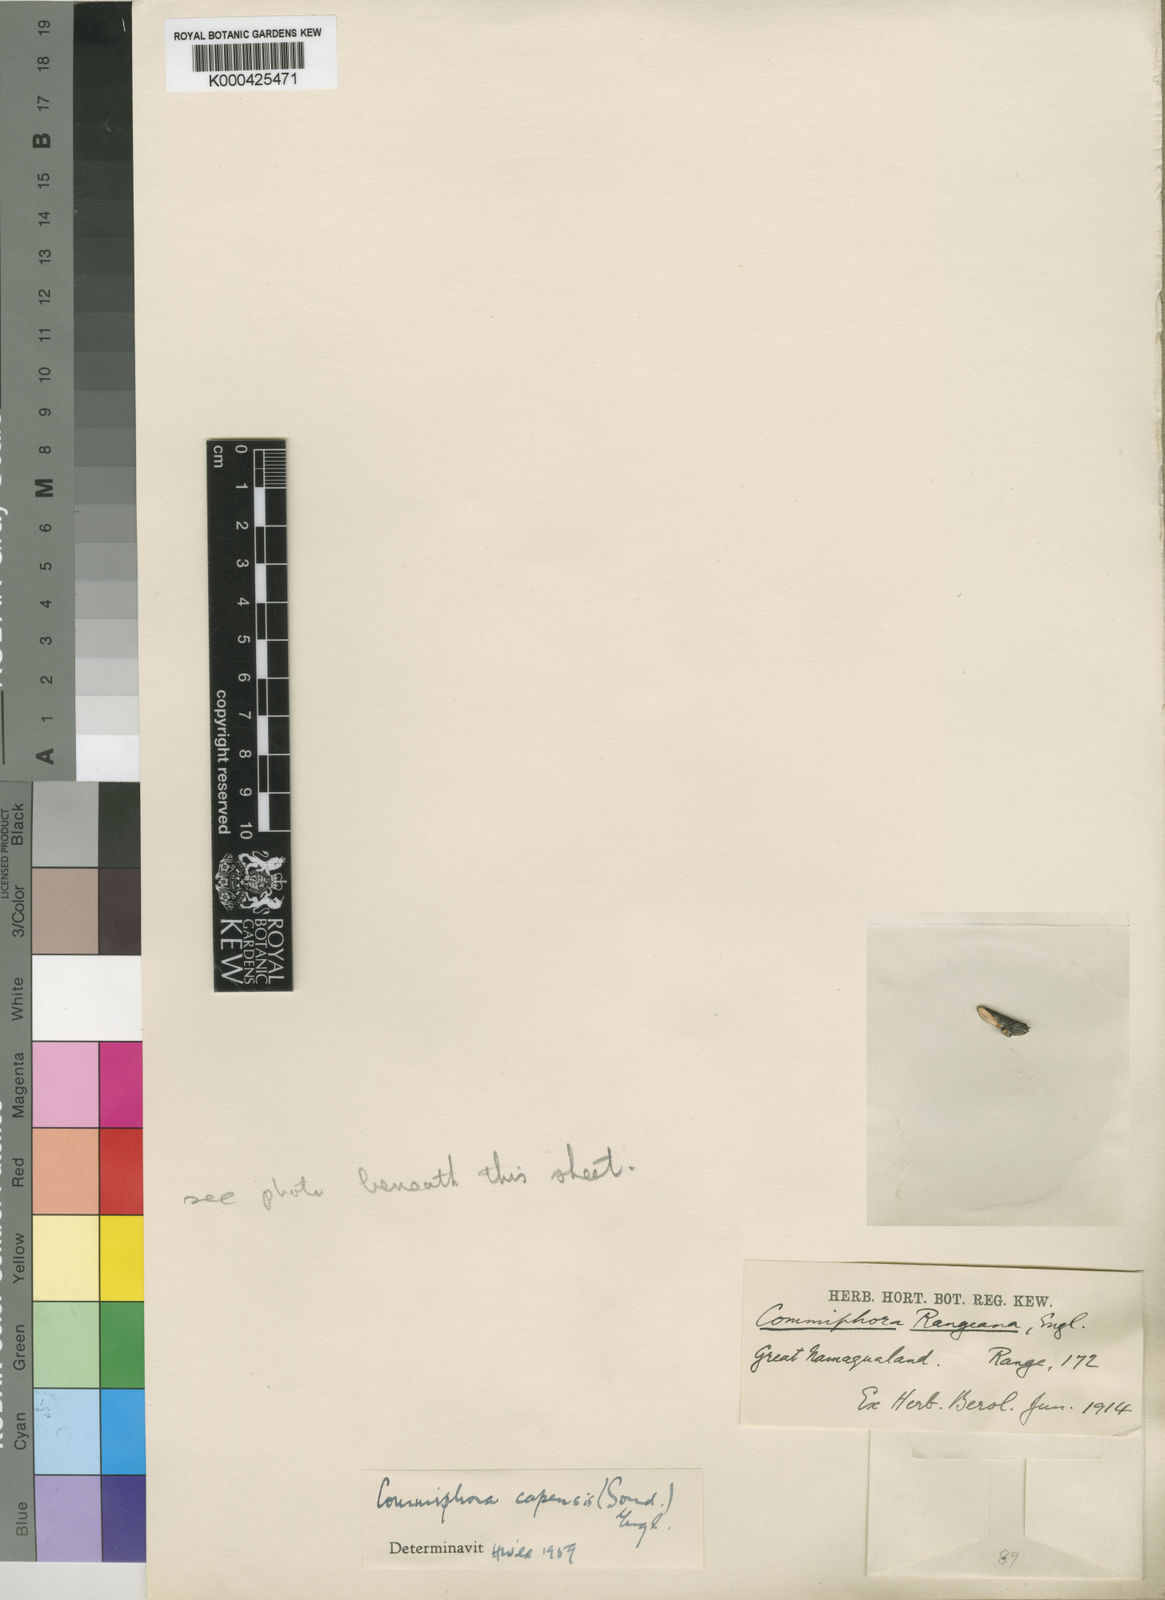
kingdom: Plantae
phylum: Tracheophyta
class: Magnoliopsida
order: Sapindales
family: Burseraceae
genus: Commiphora
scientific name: Commiphora capensis
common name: Namaqua commiphora
